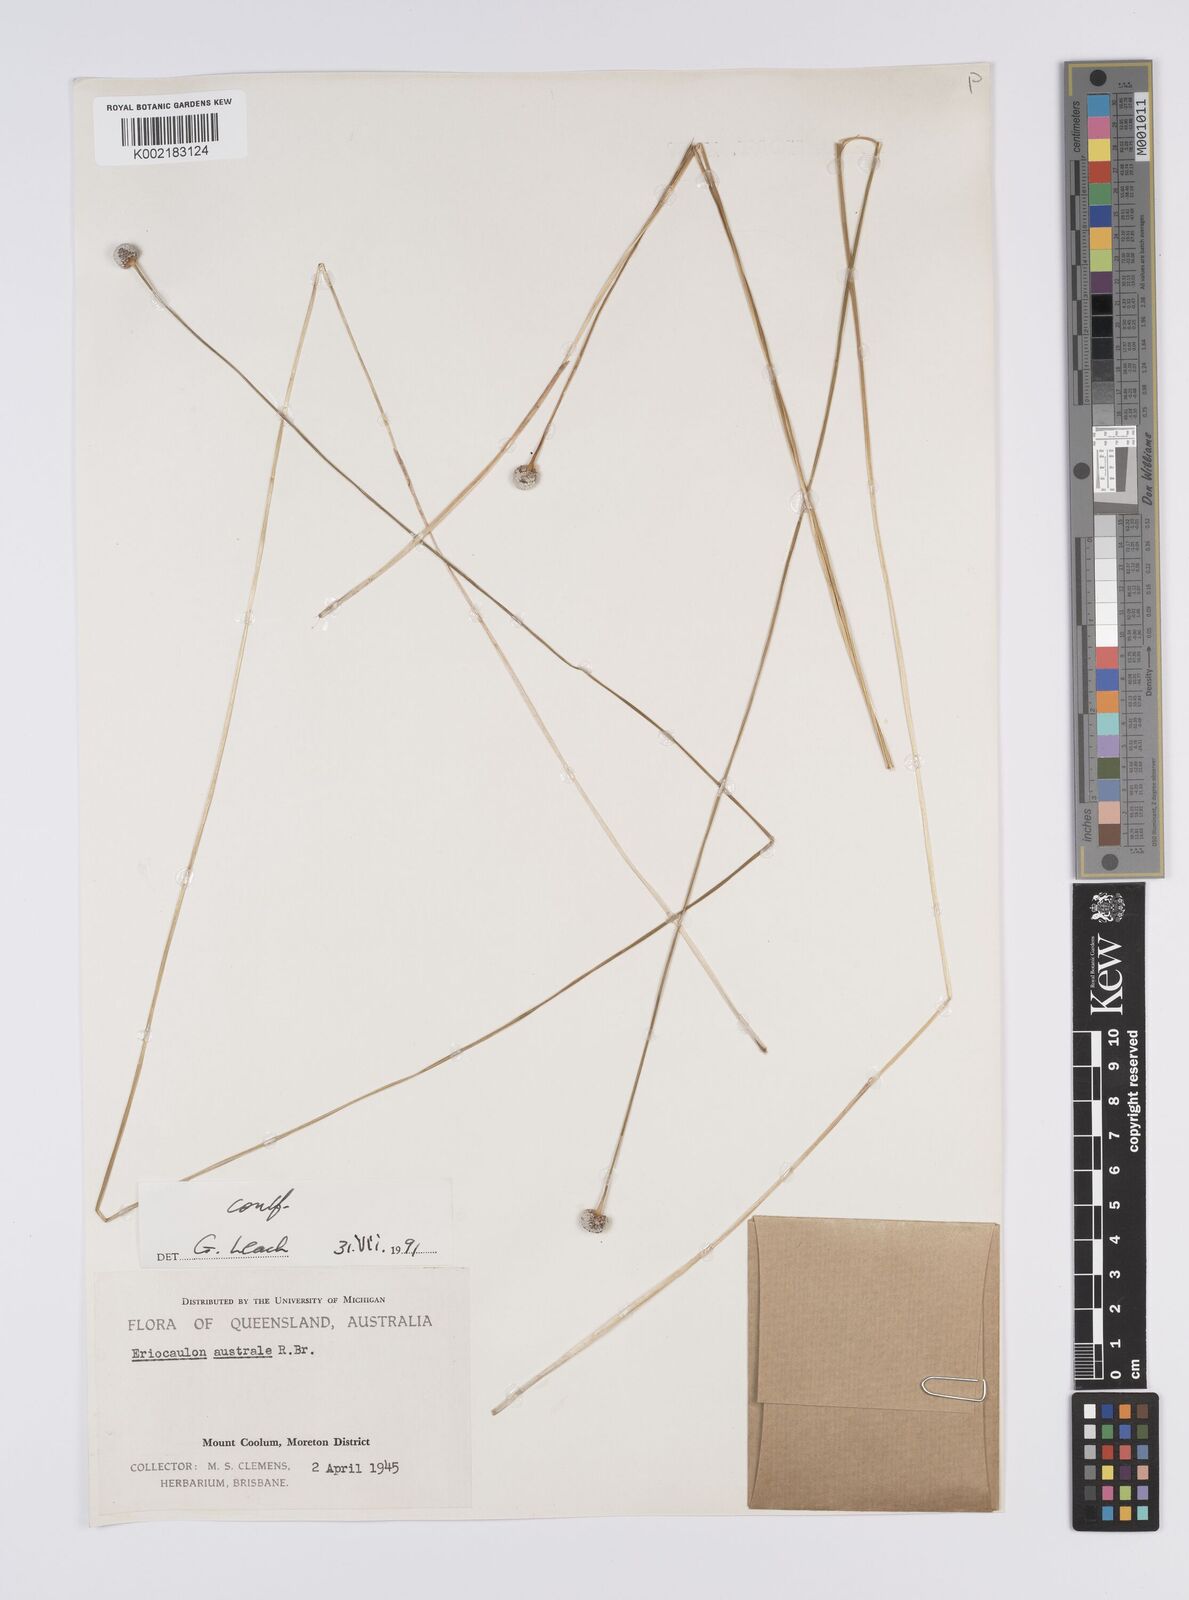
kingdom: Plantae
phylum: Tracheophyta
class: Liliopsida
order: Poales
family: Eriocaulaceae
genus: Eriocaulon
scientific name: Eriocaulon australe
